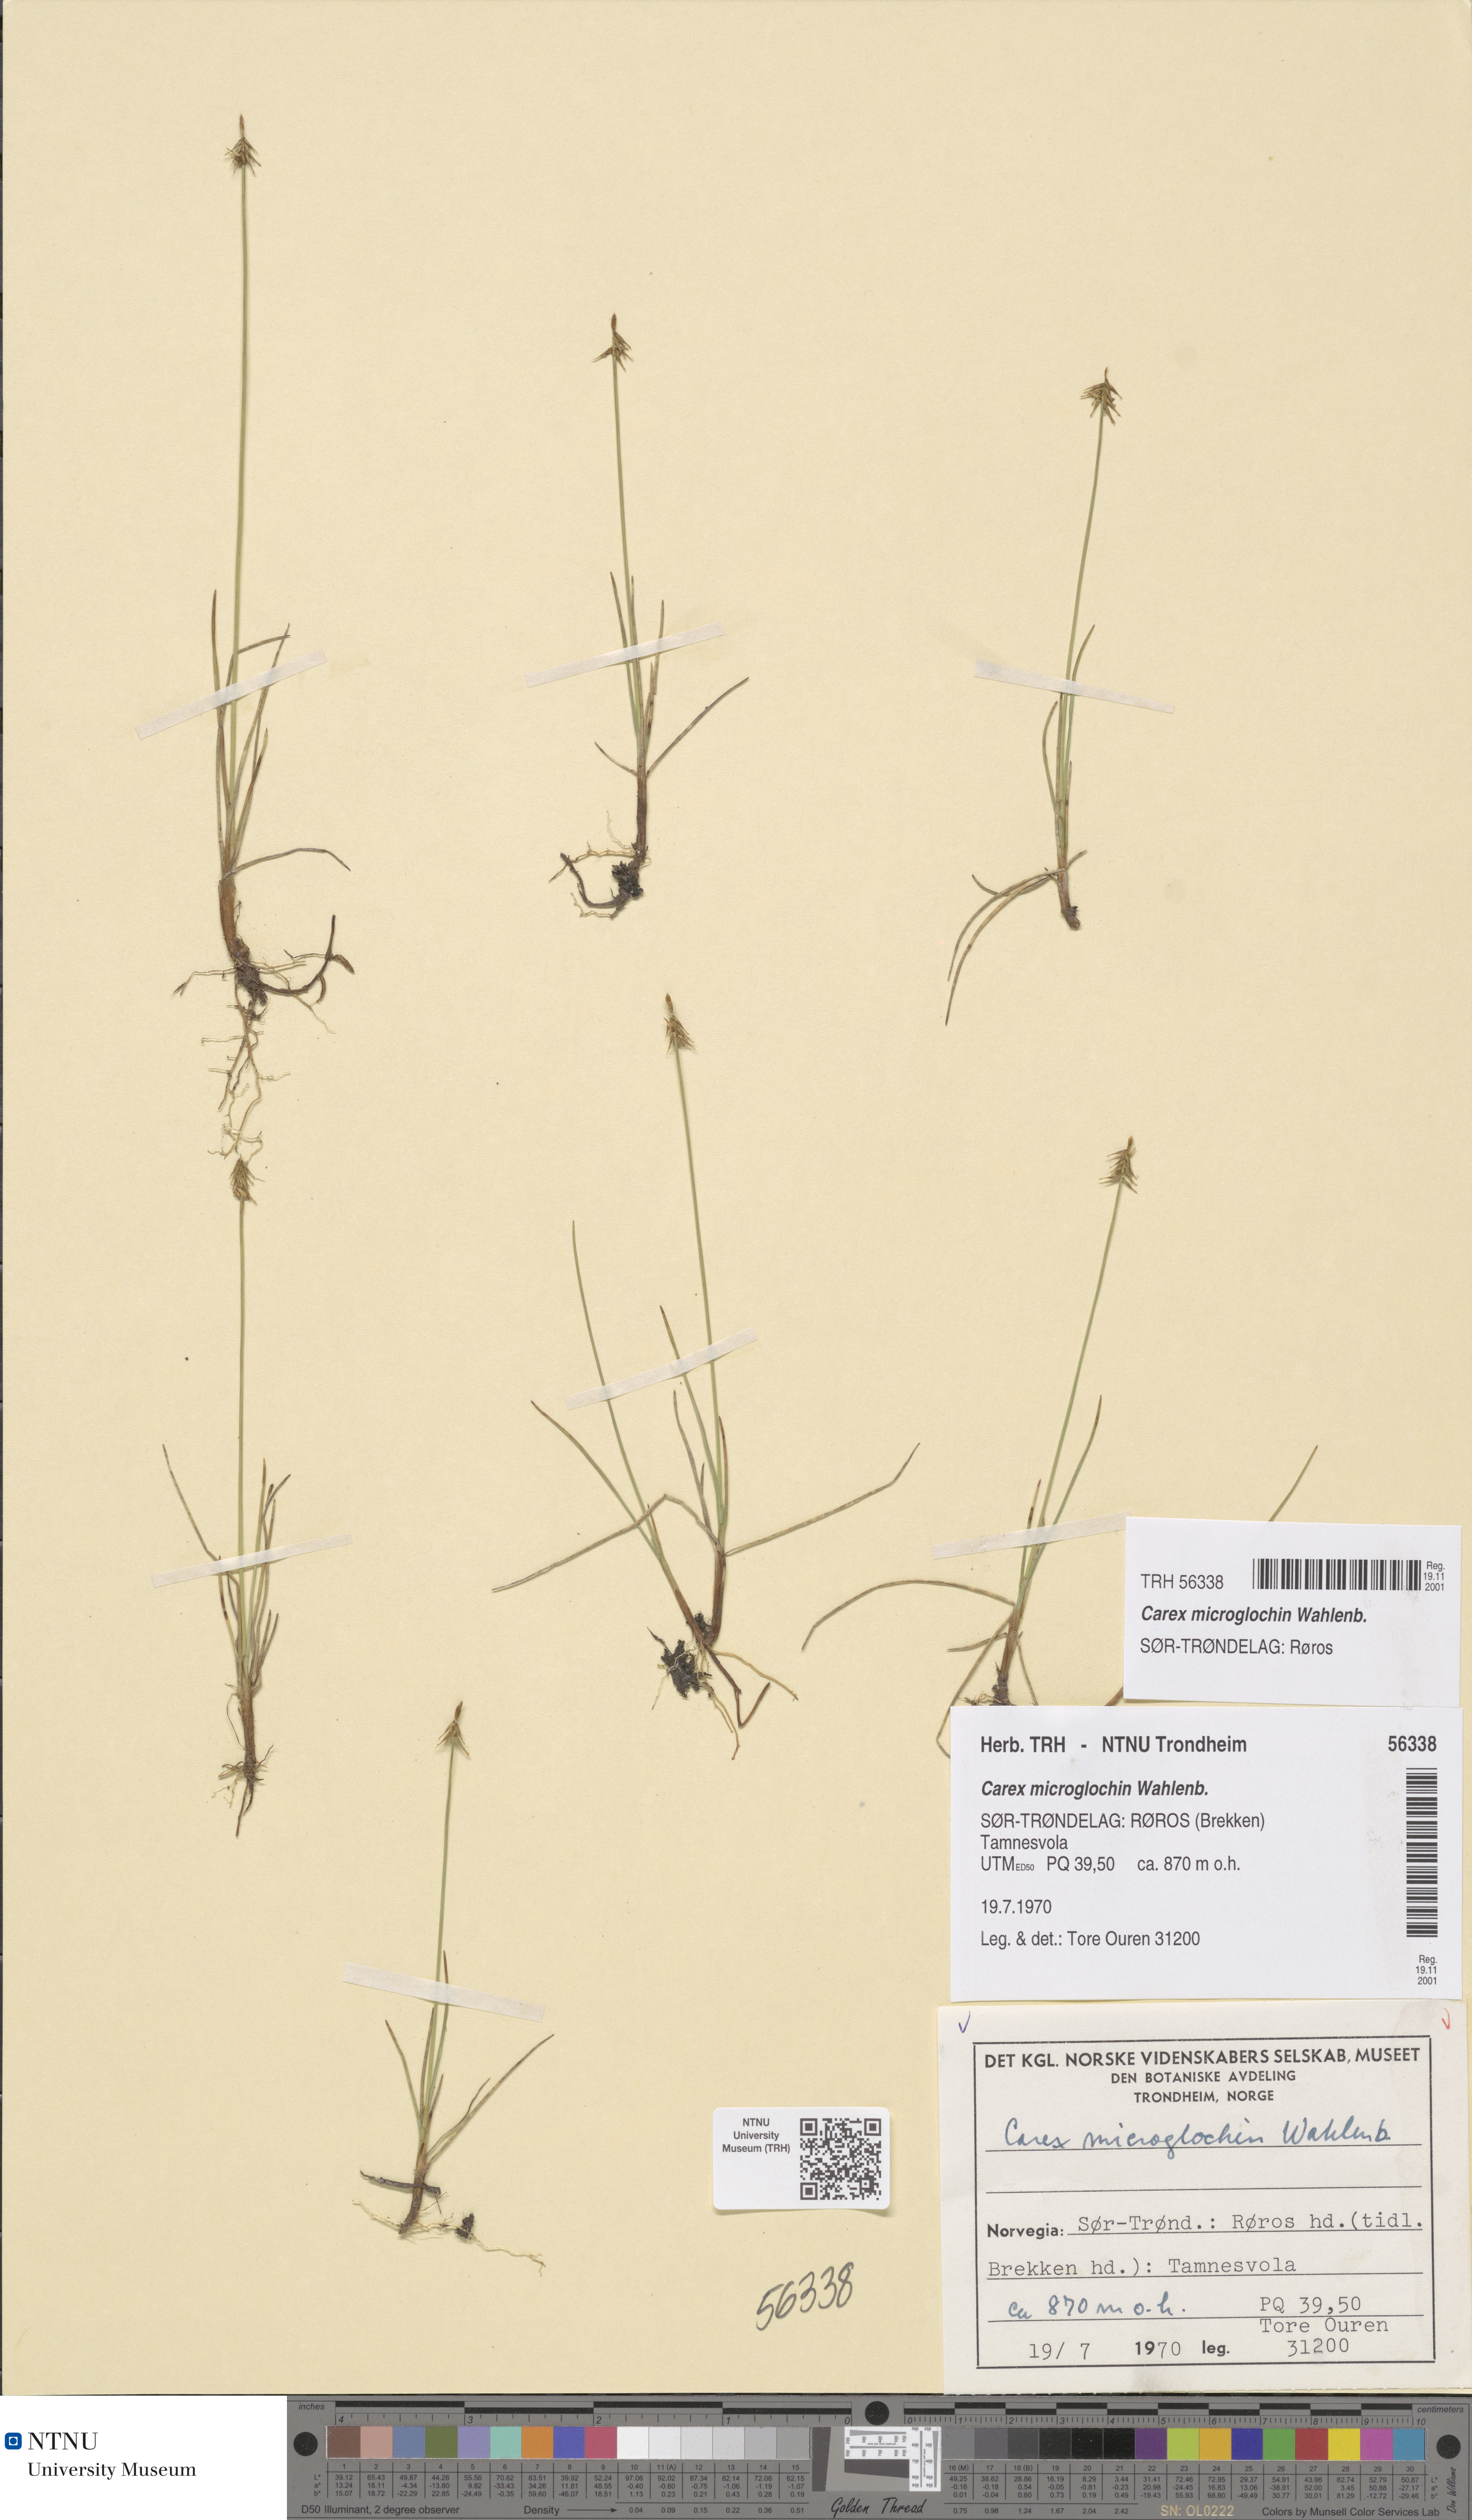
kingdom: Plantae
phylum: Tracheophyta
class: Liliopsida
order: Poales
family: Cyperaceae
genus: Carex
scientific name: Carex microglochin
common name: Bristle sedge
